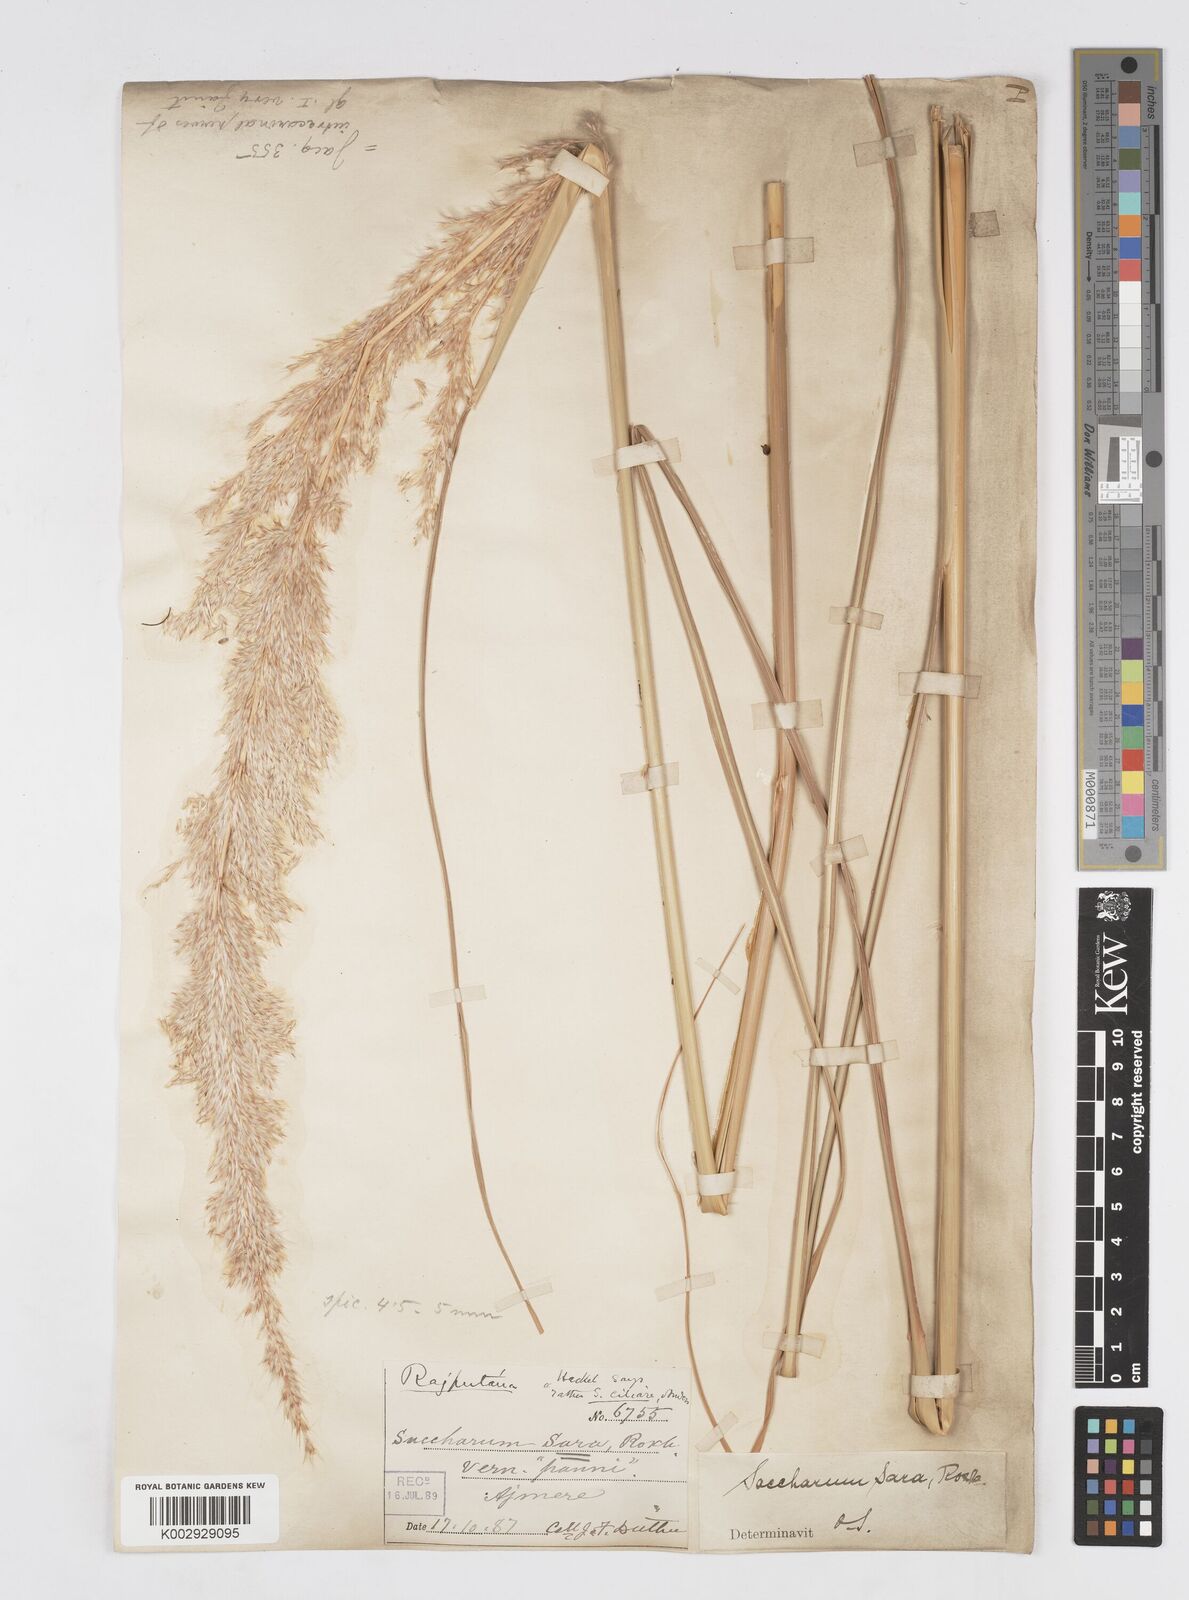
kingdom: Plantae
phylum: Tracheophyta
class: Liliopsida
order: Poales
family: Poaceae
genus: Tripidium
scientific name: Tripidium bengalense
